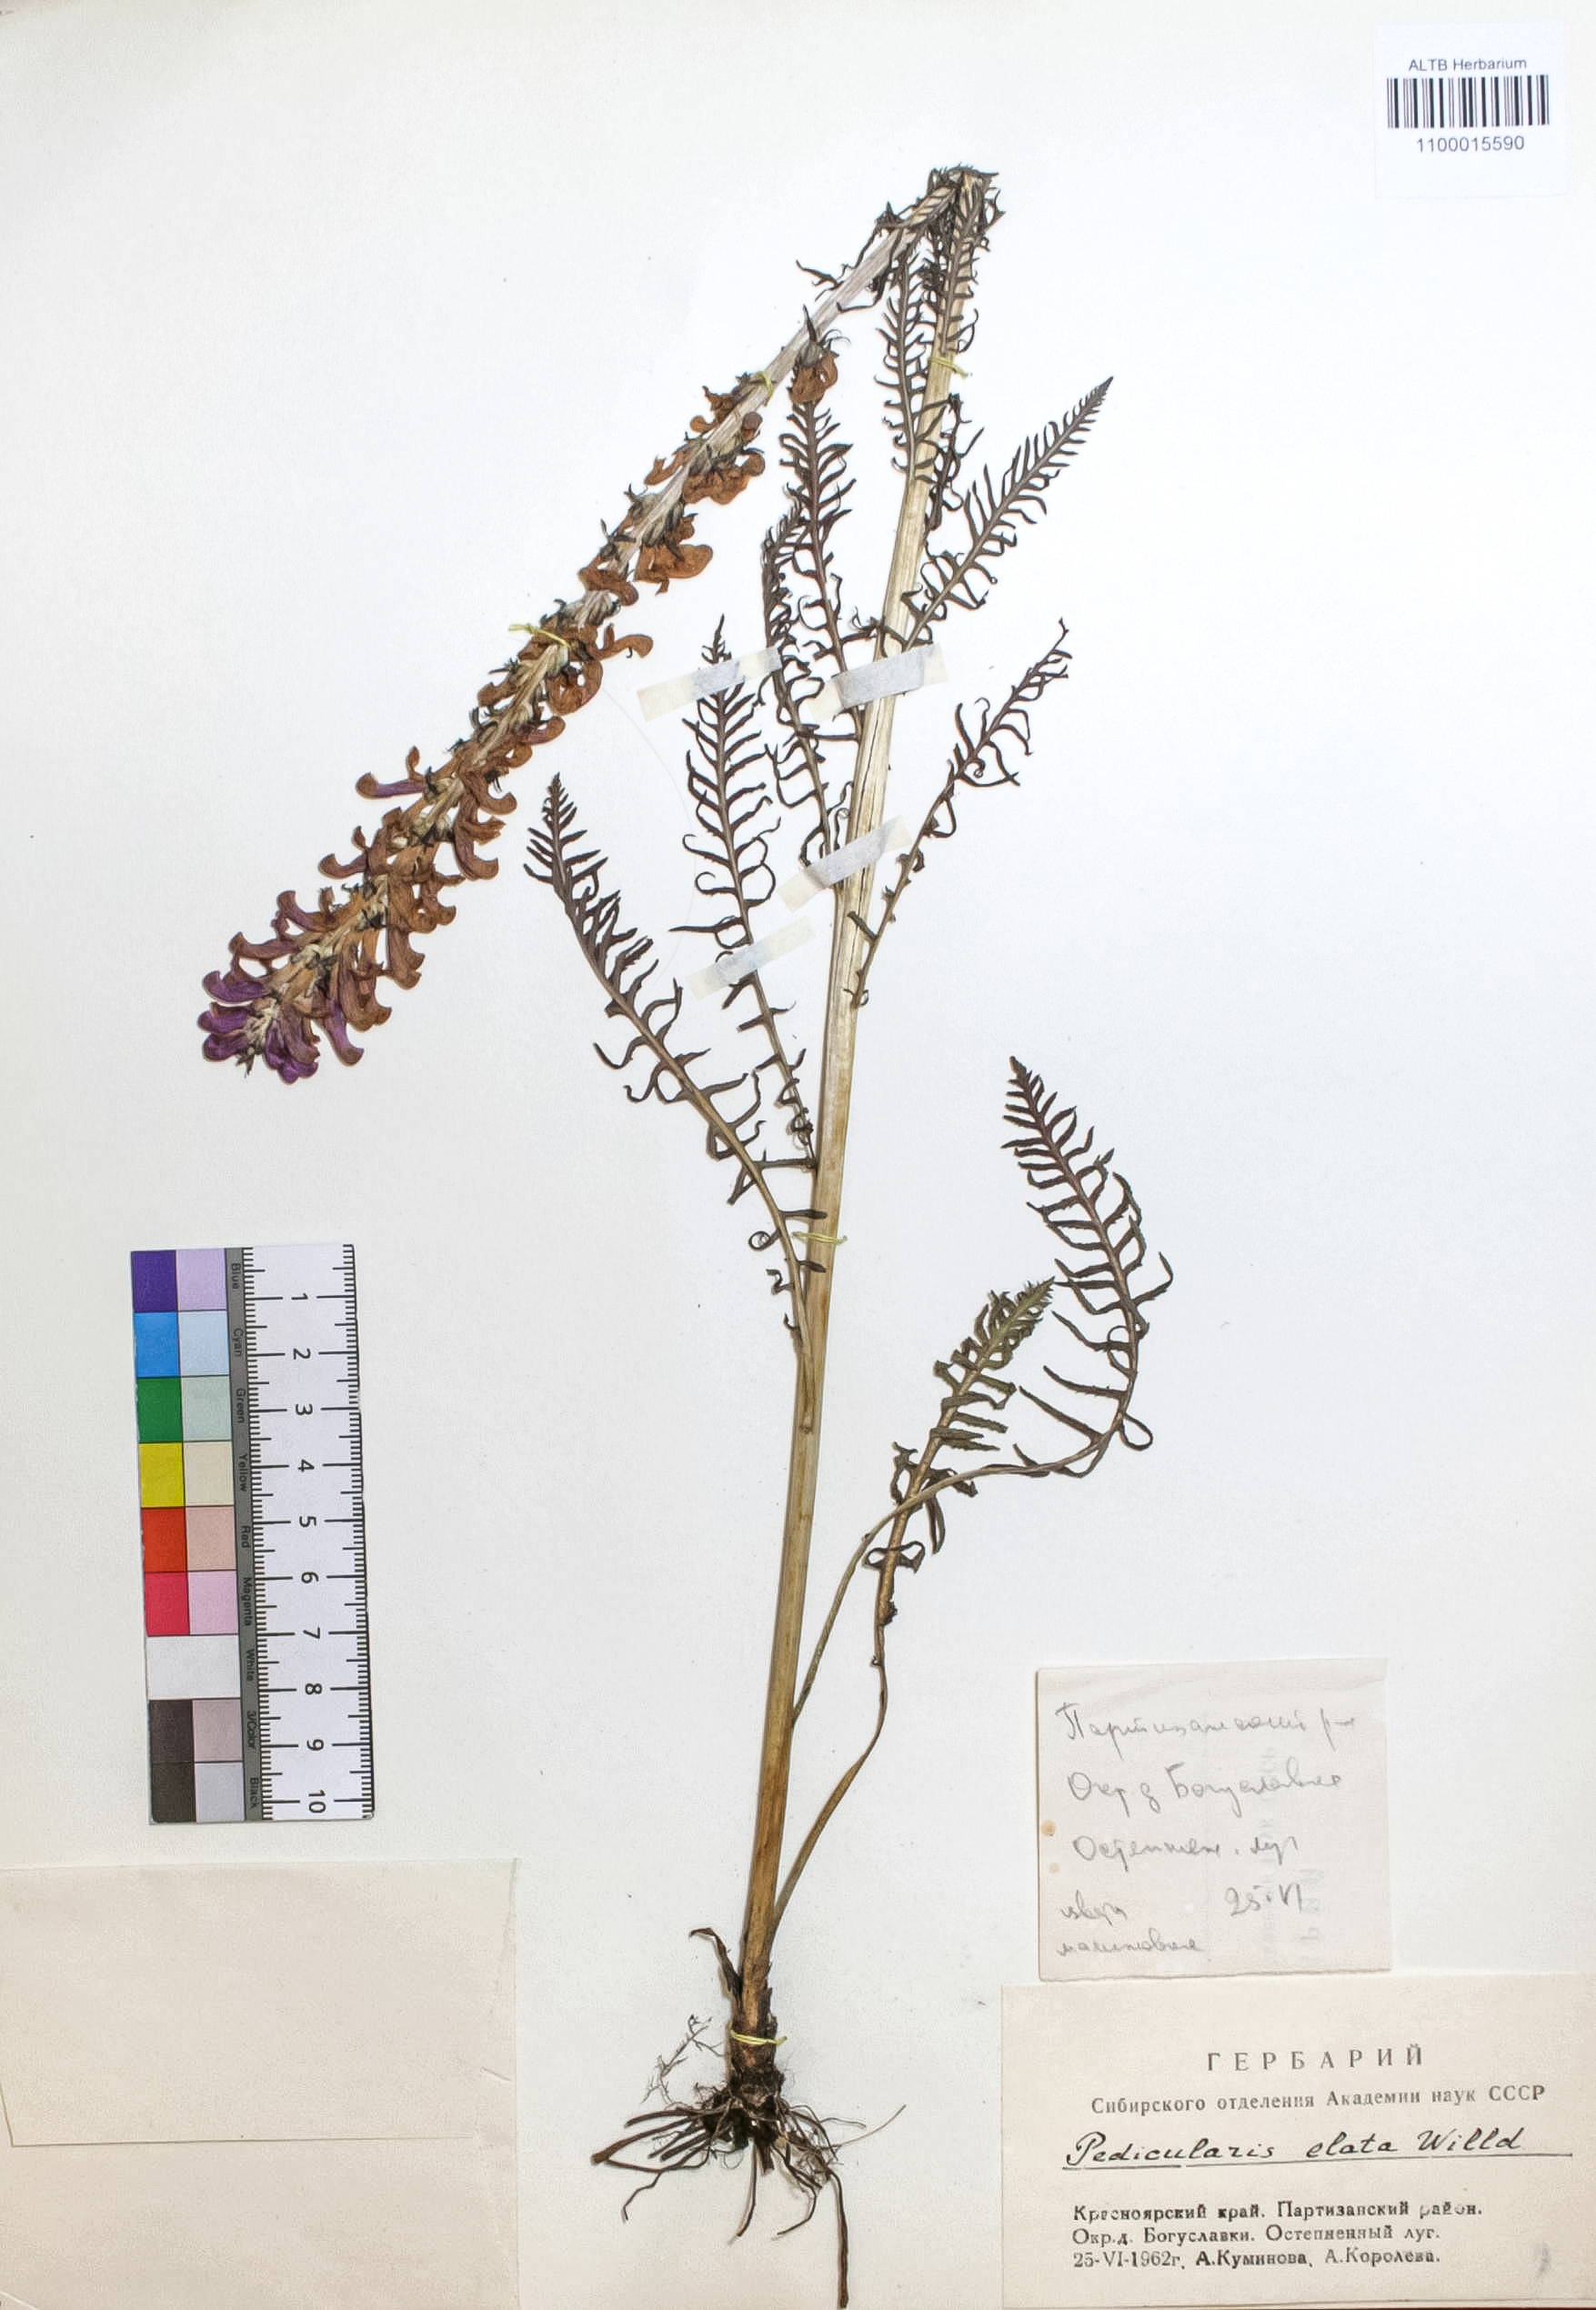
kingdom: Plantae
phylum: Tracheophyta
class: Magnoliopsida
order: Lamiales
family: Orobanchaceae
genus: Pedicularis
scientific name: Pedicularis elata
